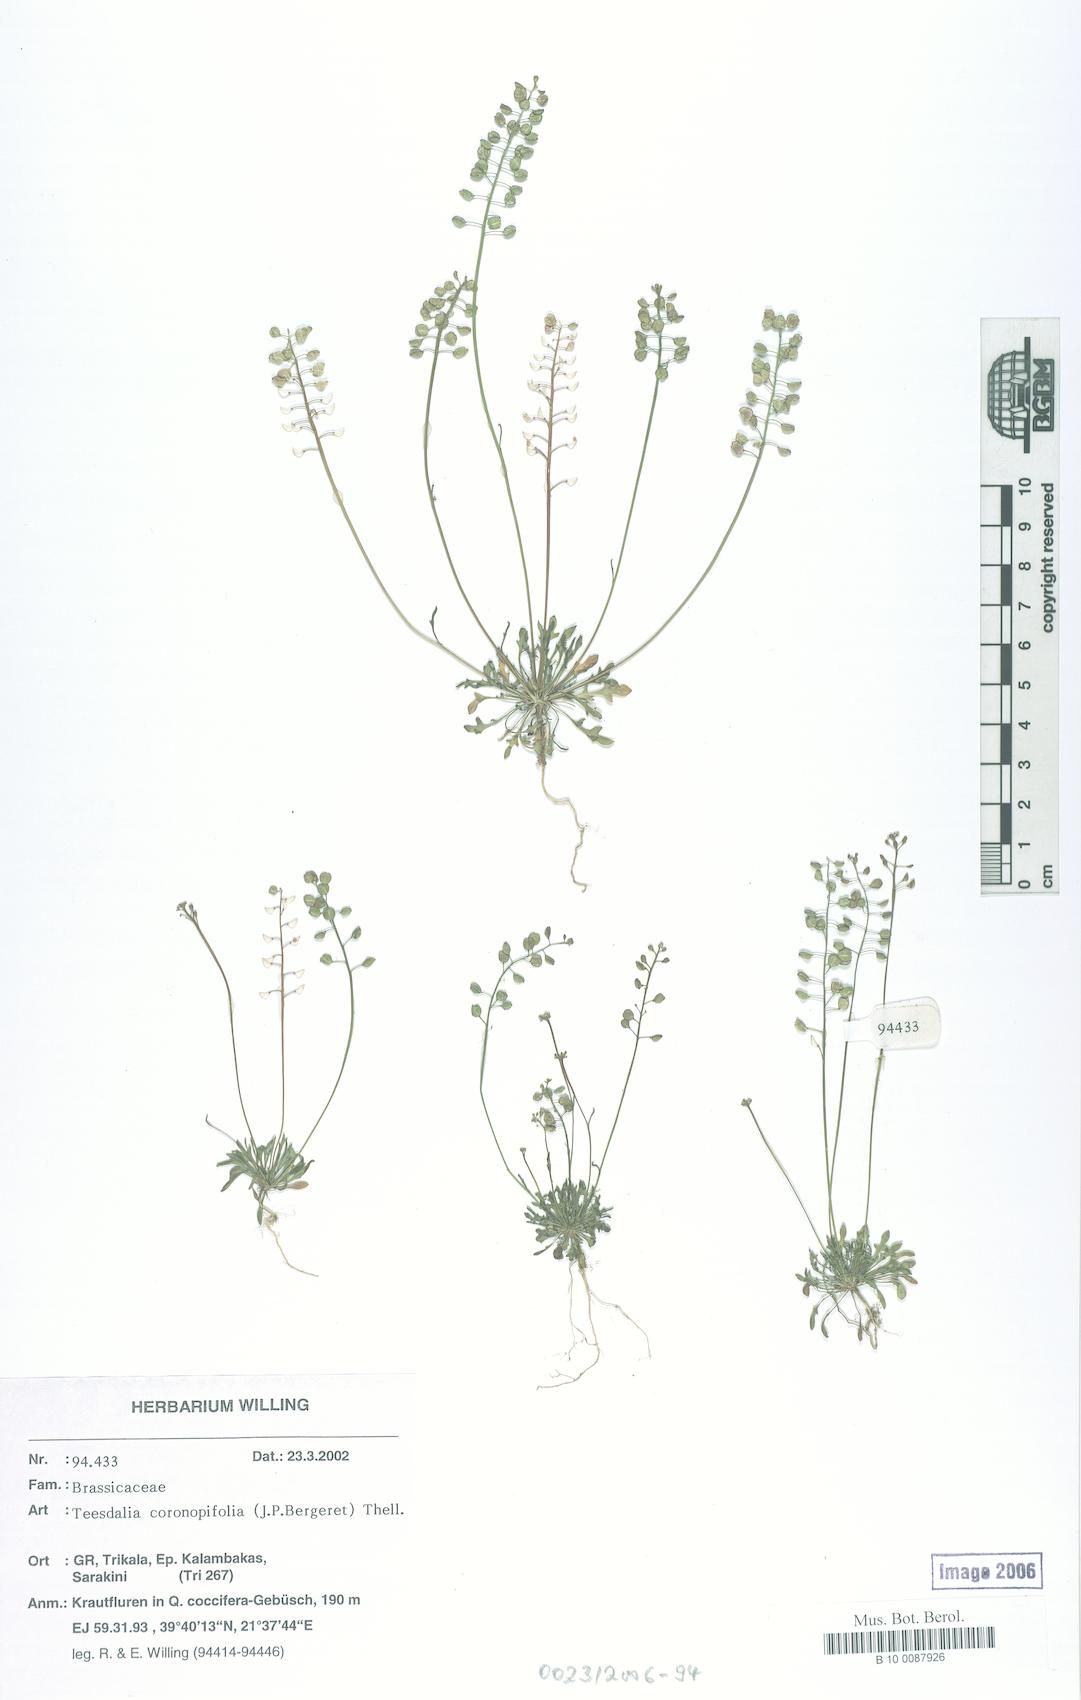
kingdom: Plantae
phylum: Tracheophyta
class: Magnoliopsida
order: Brassicales
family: Brassicaceae
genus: Teesdalia
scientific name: Teesdalia coronopifolia
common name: Lesser shepherdscress
